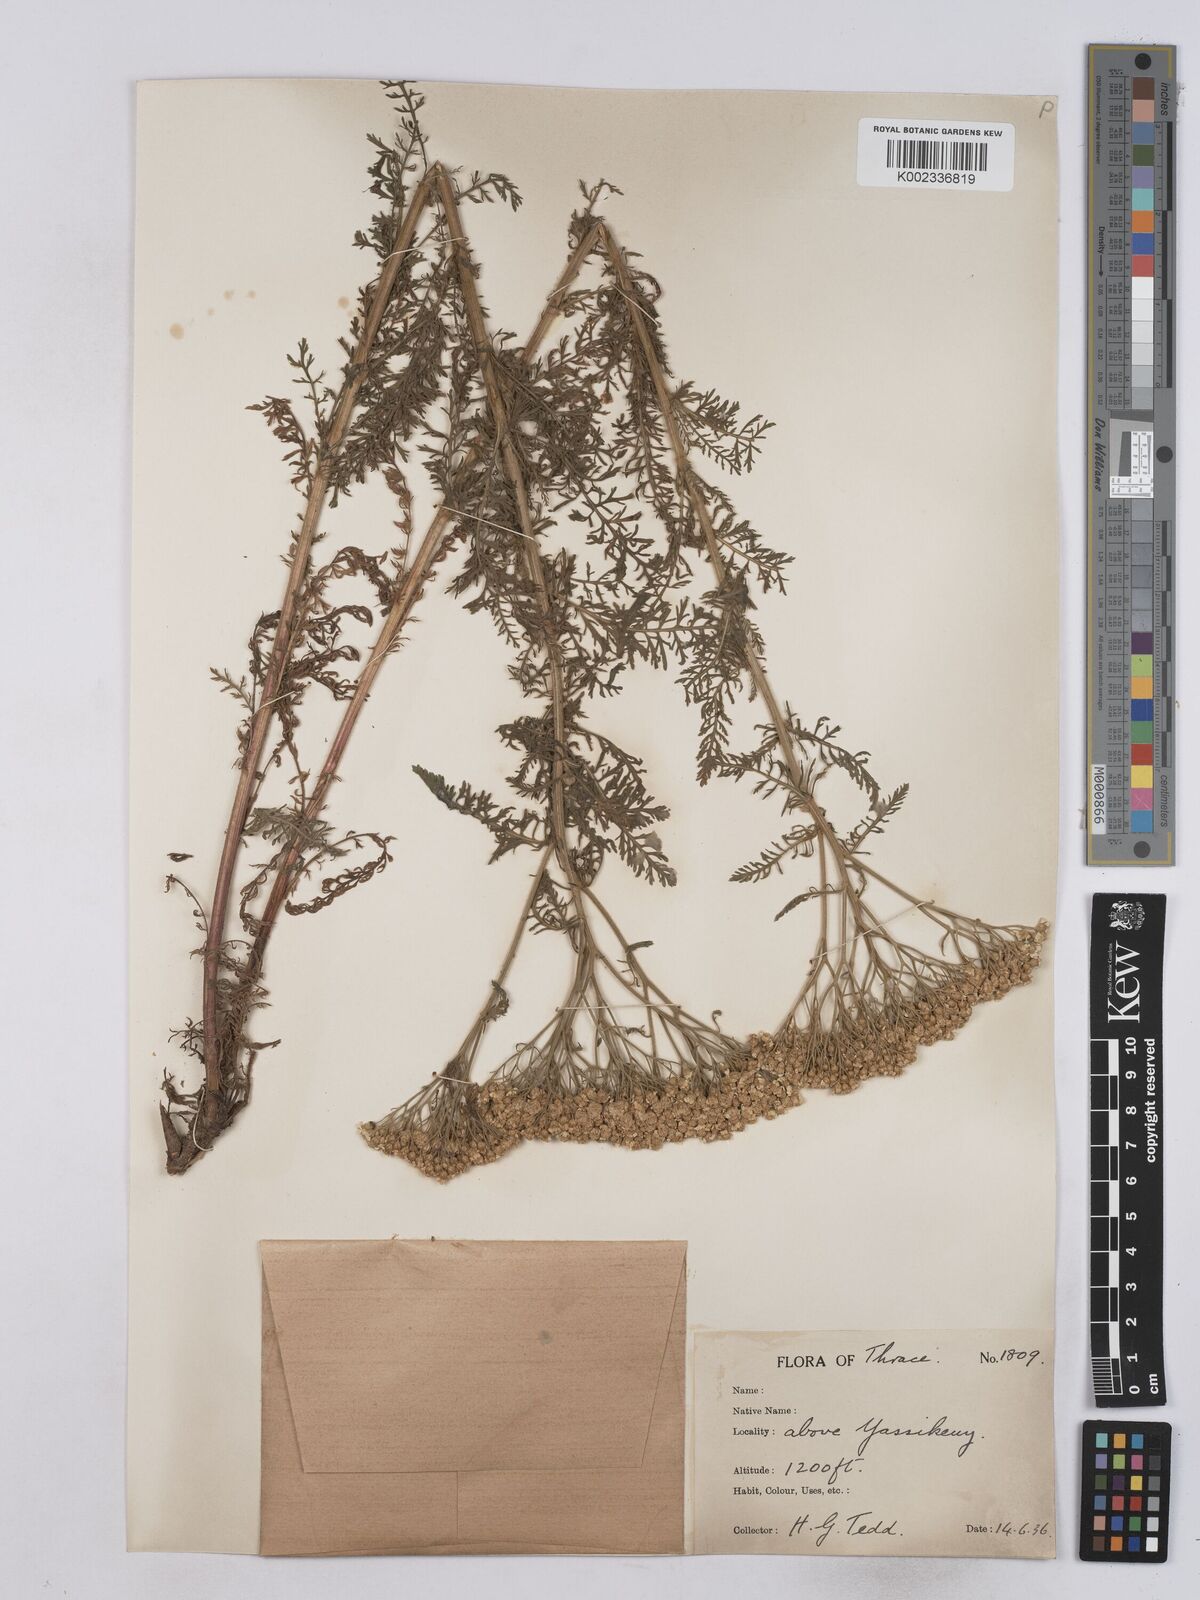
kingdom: Plantae
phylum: Tracheophyta
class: Magnoliopsida
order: Asterales
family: Asteraceae
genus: Achillea
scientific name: Achillea crithmifolia
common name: Yarrow
